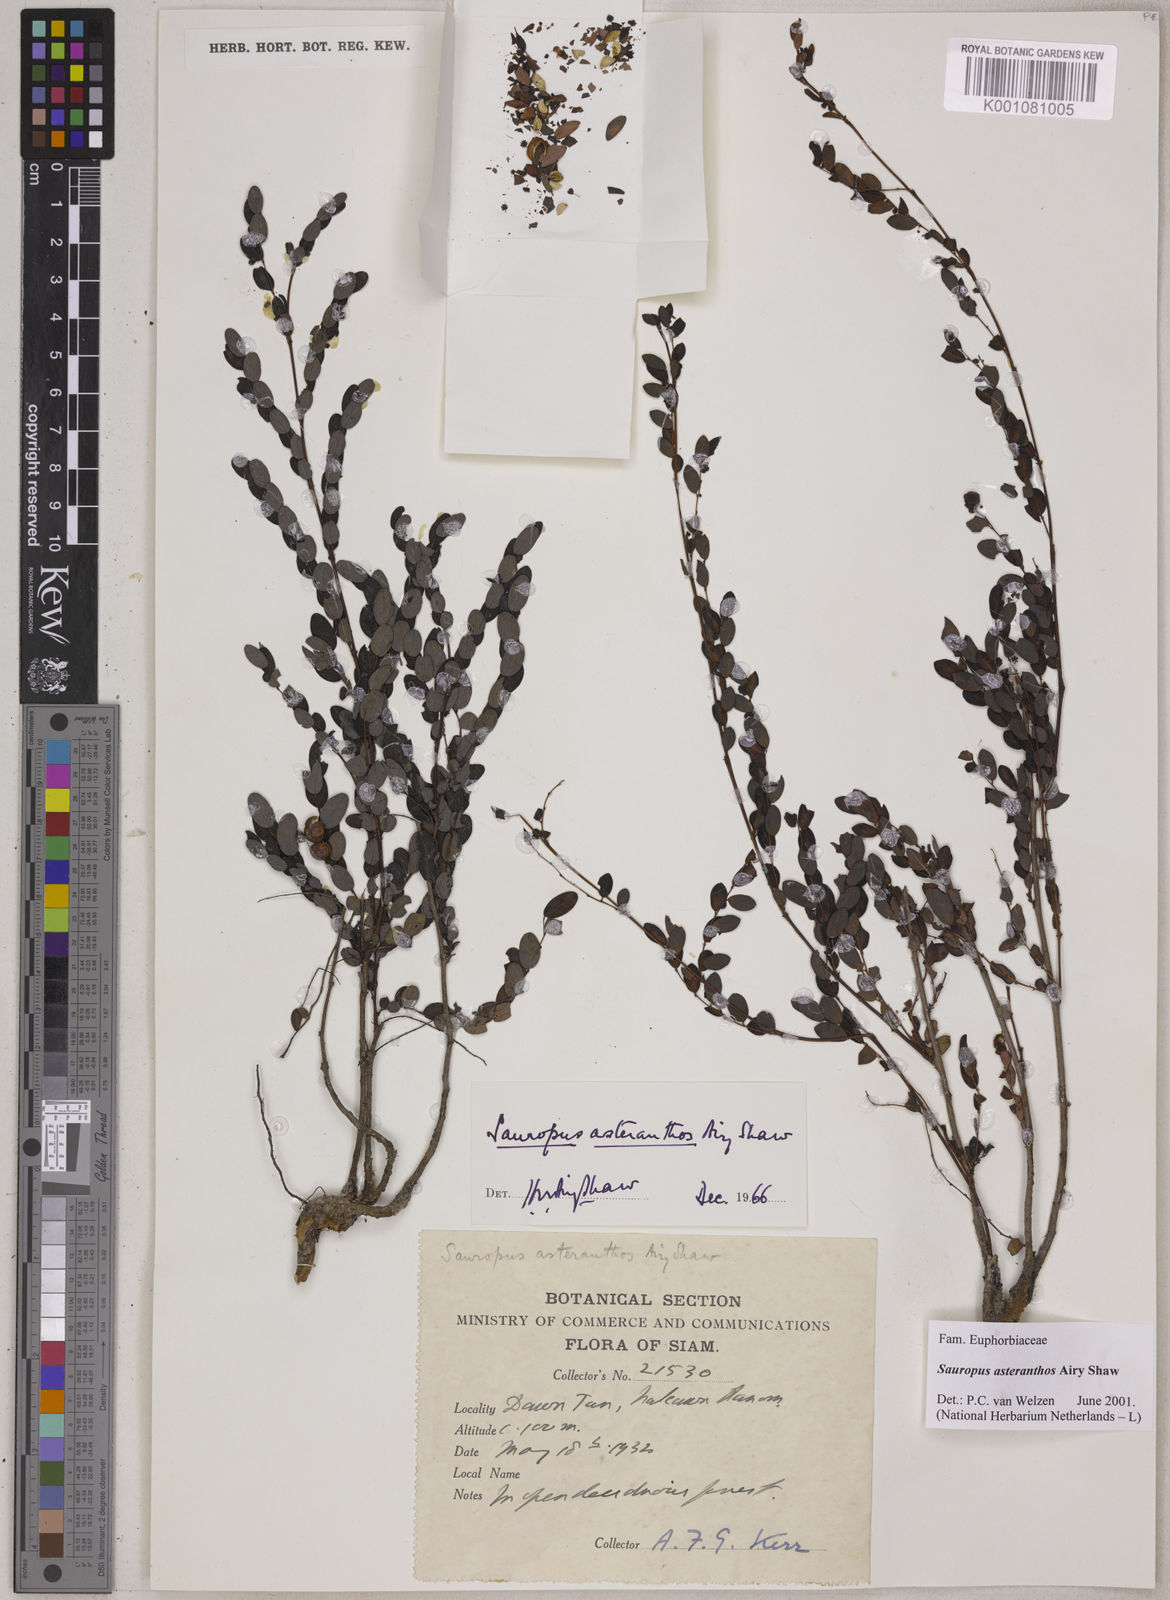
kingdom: Plantae
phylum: Tracheophyta
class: Magnoliopsida
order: Malpighiales
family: Phyllanthaceae
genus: Breynia
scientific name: Breynia asteranthos
